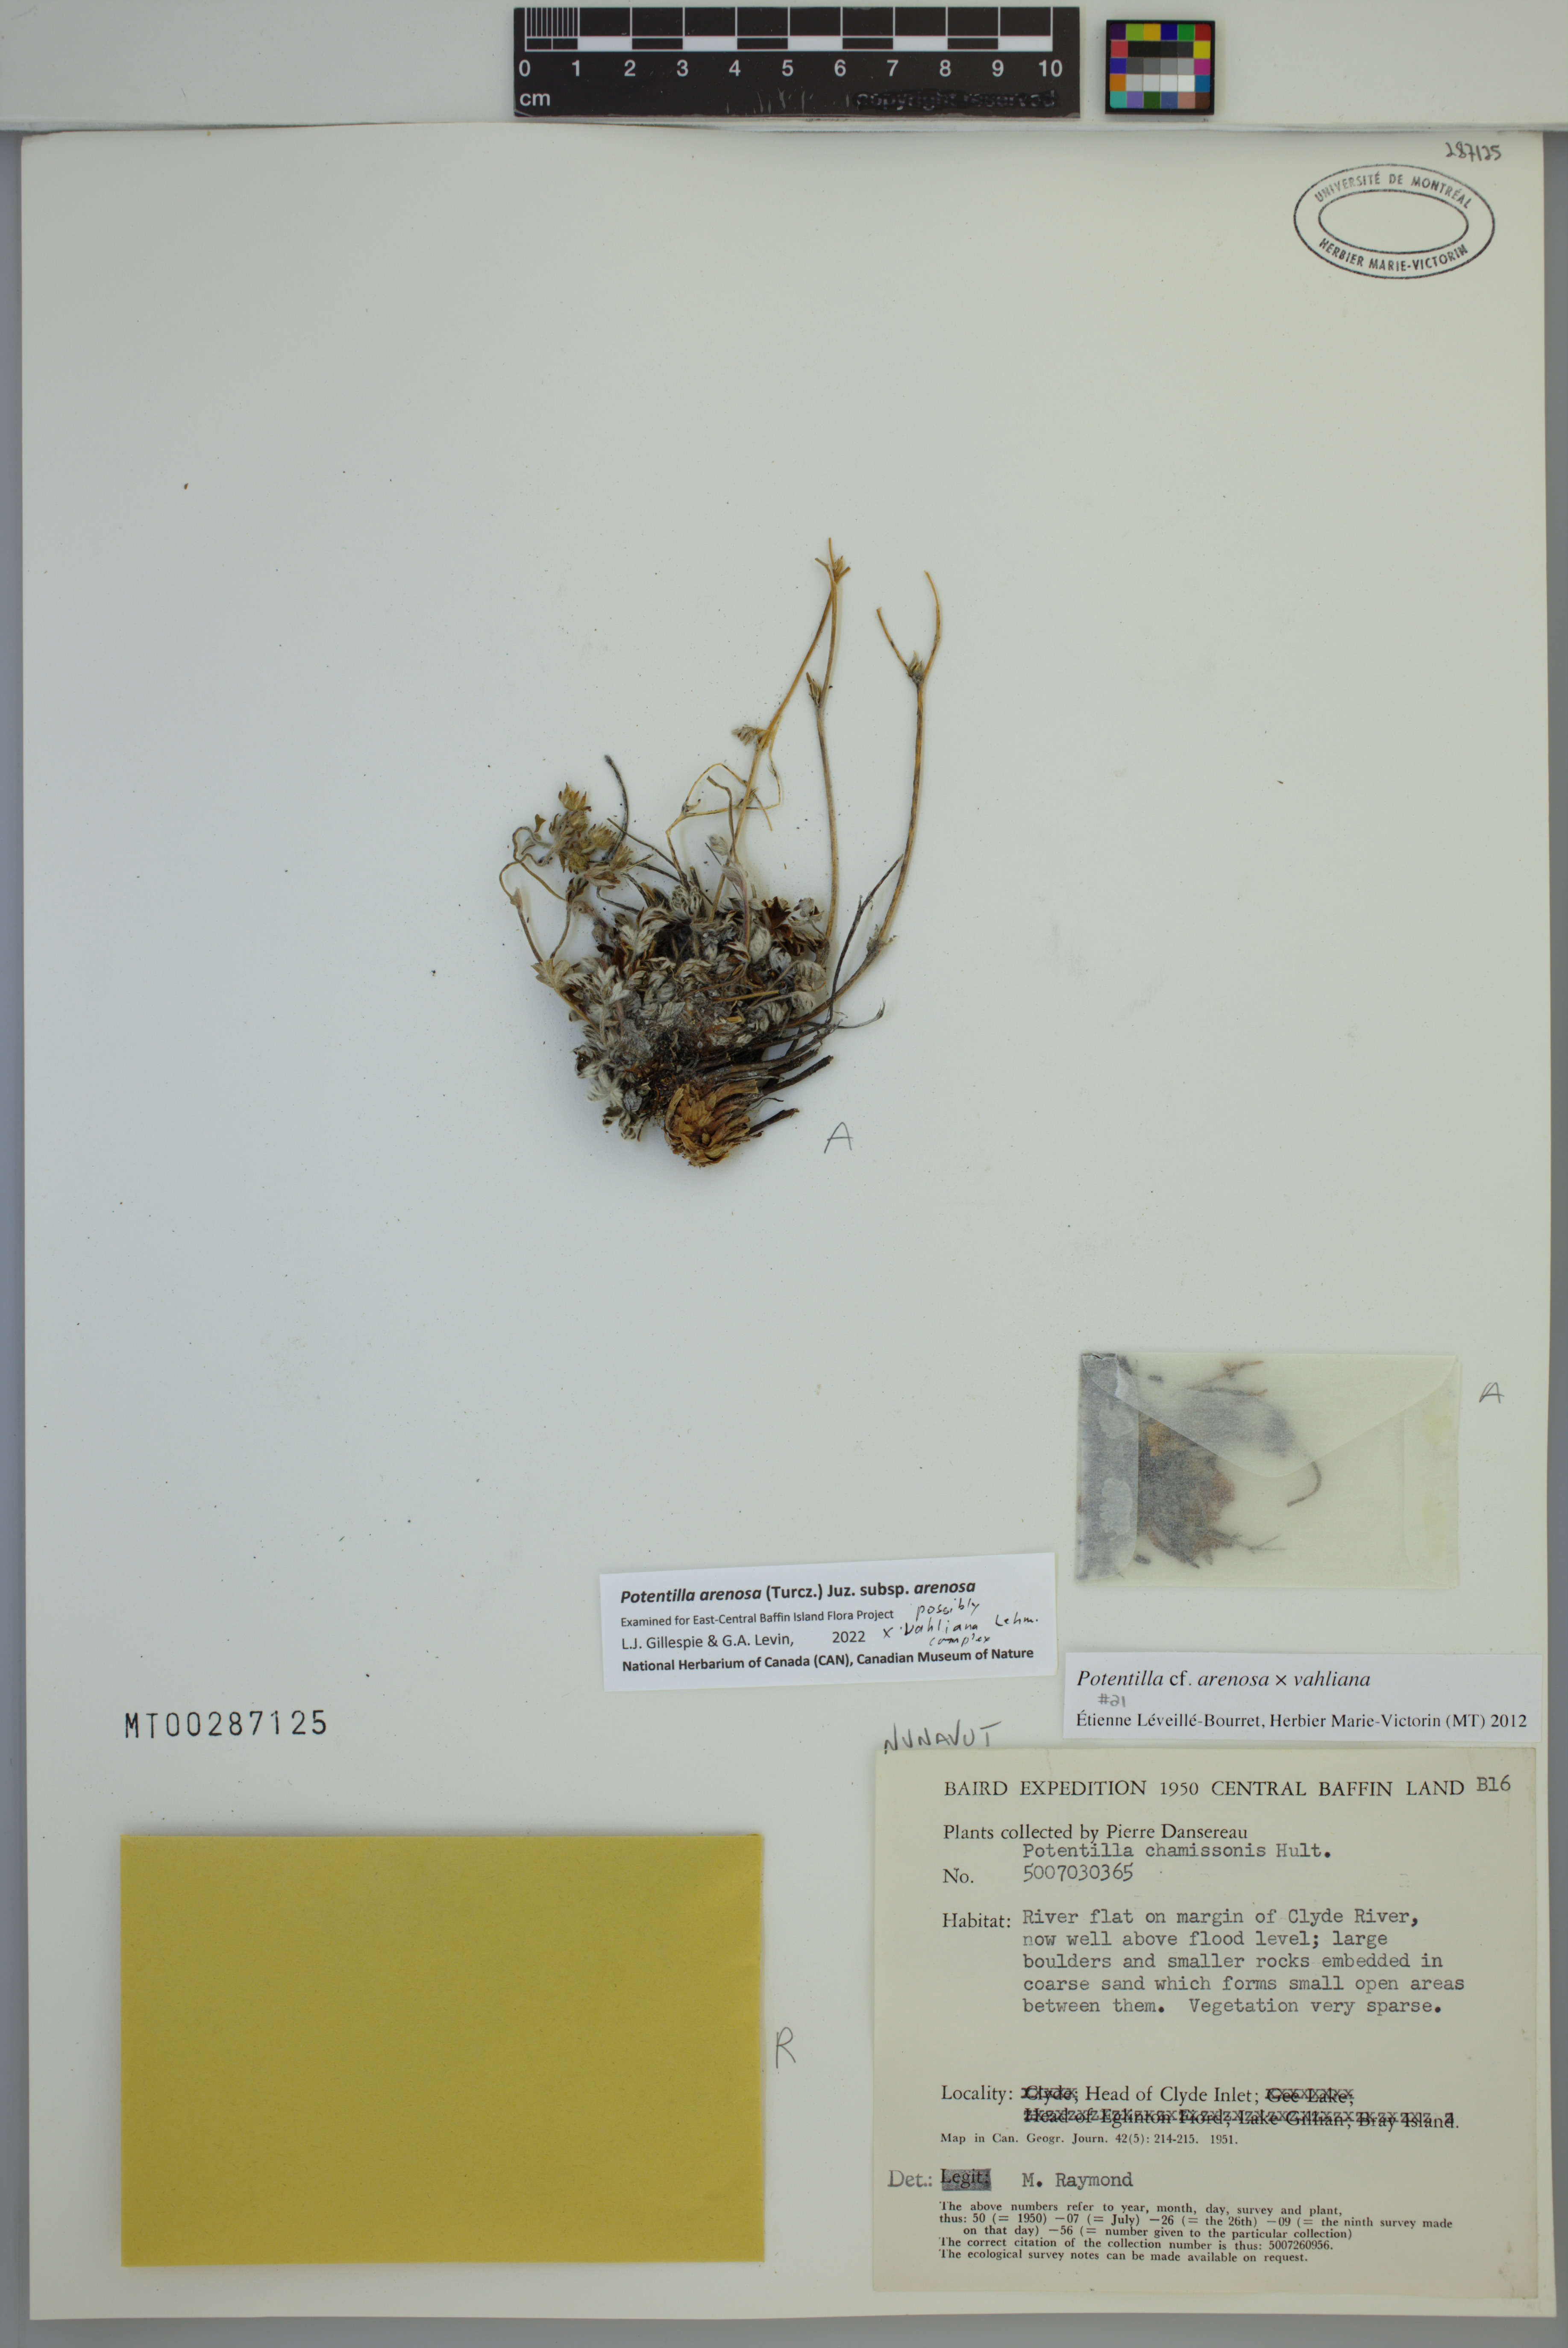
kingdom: Plantae
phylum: Tracheophyta
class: Magnoliopsida
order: Rosales
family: Rosaceae
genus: Potentilla
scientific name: Potentilla arenosa
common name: Bluff cinquefoil
